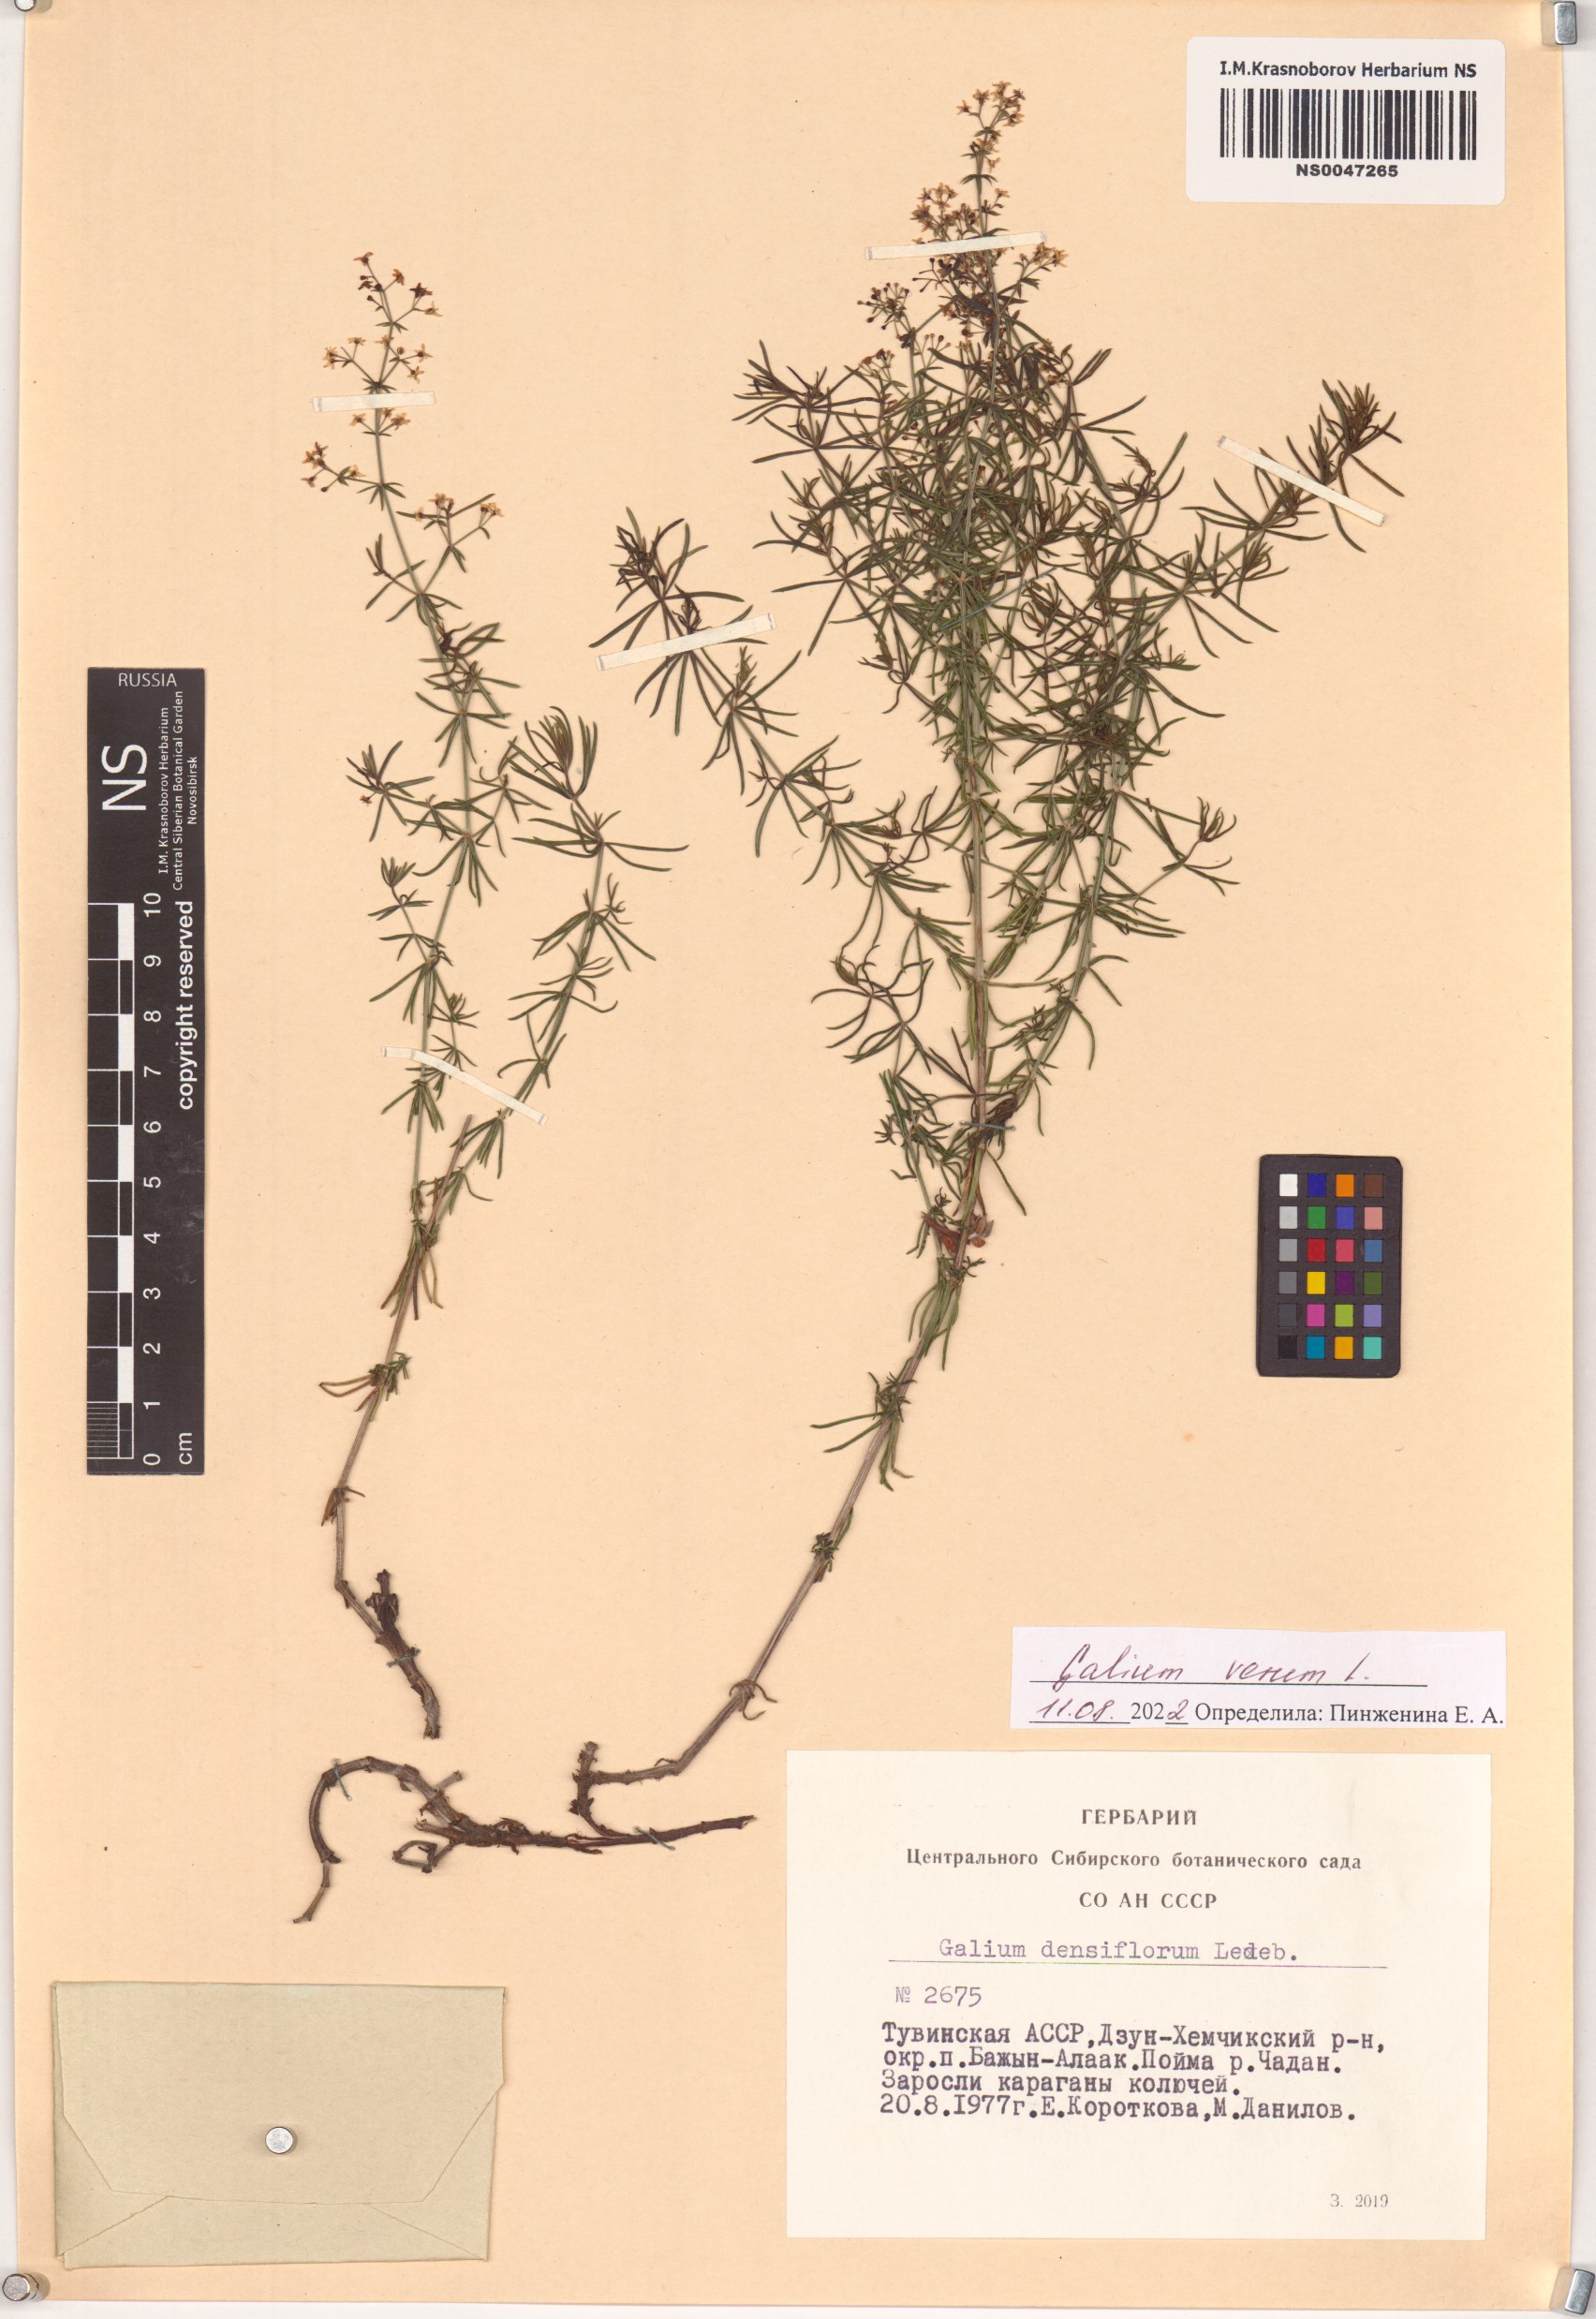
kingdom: Plantae
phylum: Tracheophyta
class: Magnoliopsida
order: Gentianales
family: Rubiaceae
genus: Galium
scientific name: Galium verum
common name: Lady's bedstraw
